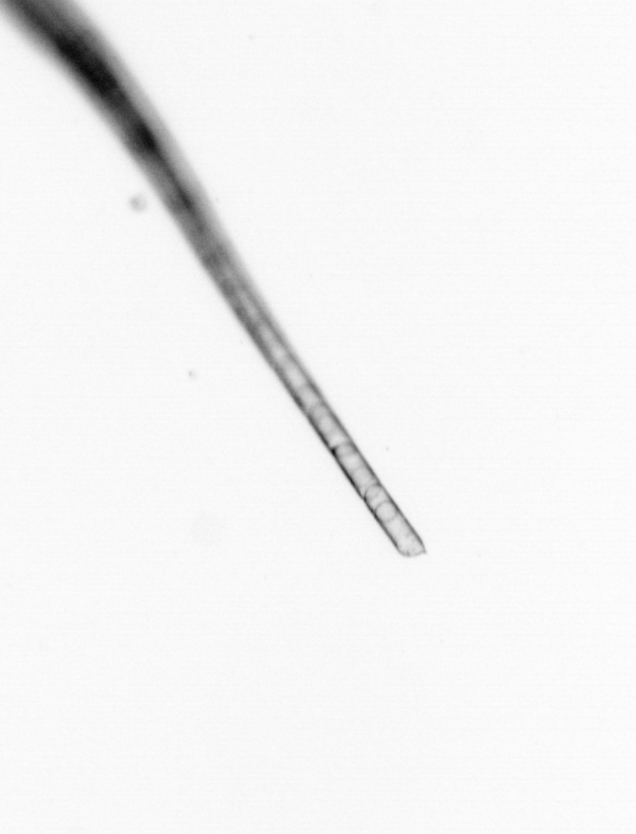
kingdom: Chromista
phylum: Ochrophyta
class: Bacillariophyceae
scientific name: Bacillariophyceae
